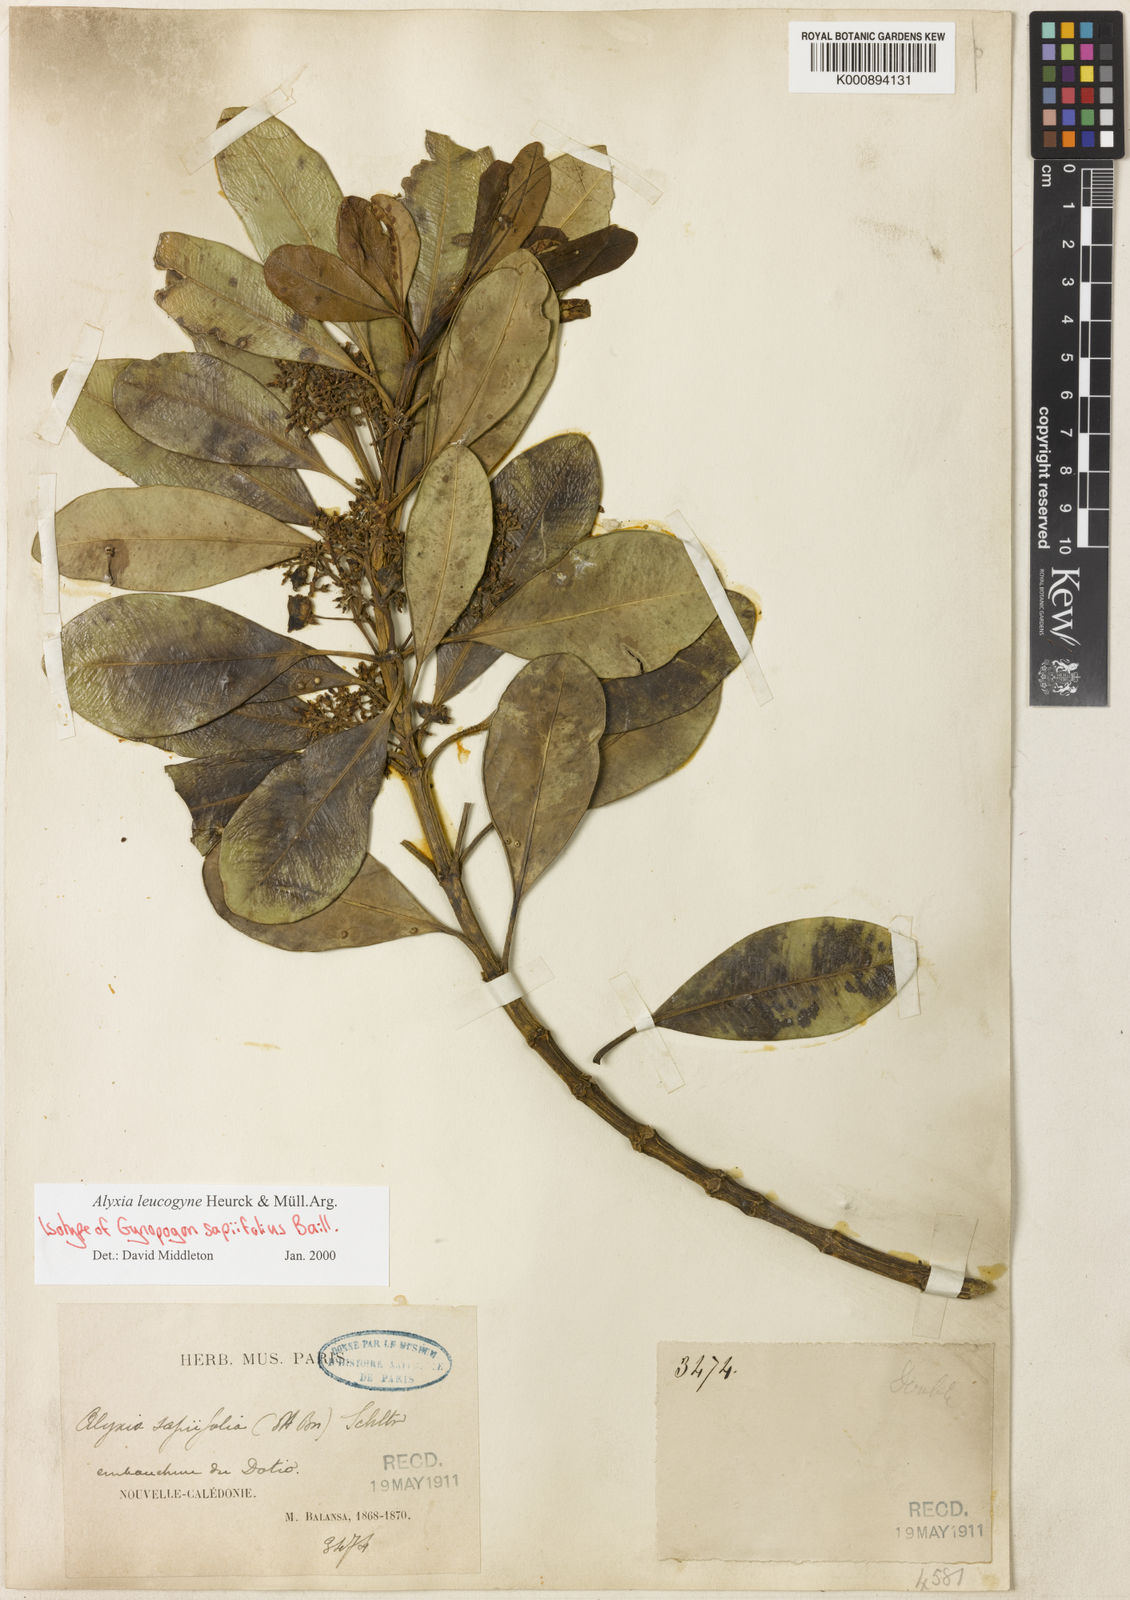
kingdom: Plantae
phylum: Tracheophyta
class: Magnoliopsida
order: Gentianales
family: Apocynaceae
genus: Alyxia
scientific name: Alyxia
